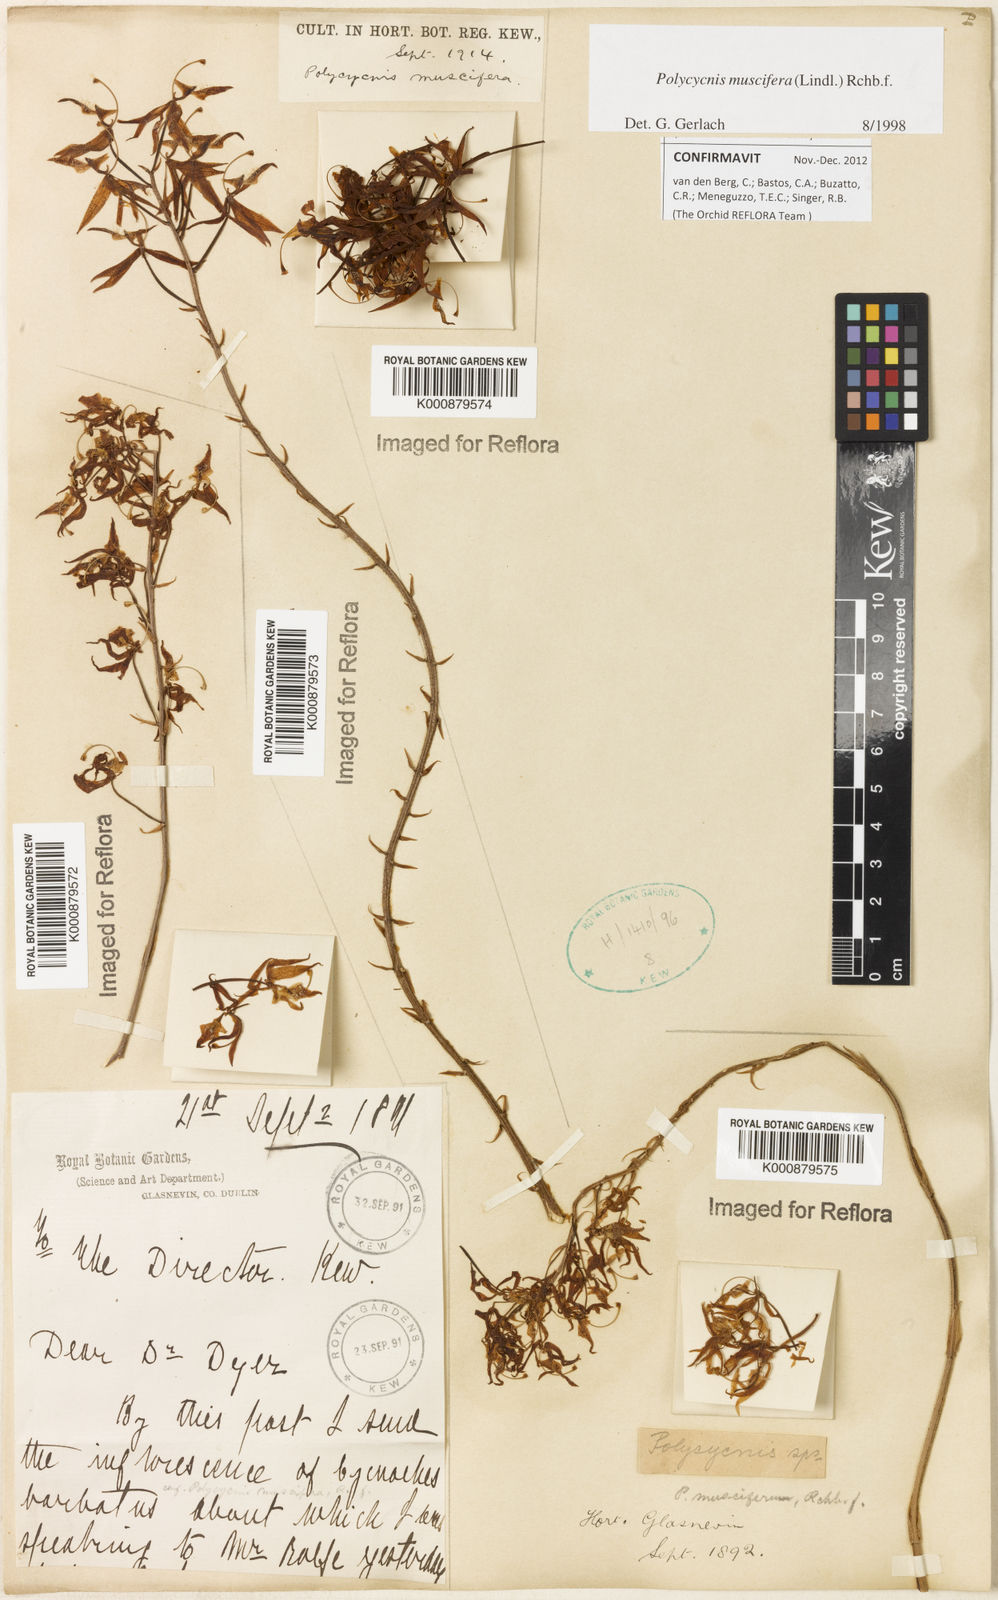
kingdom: Plantae
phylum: Tracheophyta
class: Liliopsida
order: Asparagales
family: Orchidaceae
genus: Polycycnis
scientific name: Polycycnis muscifera
